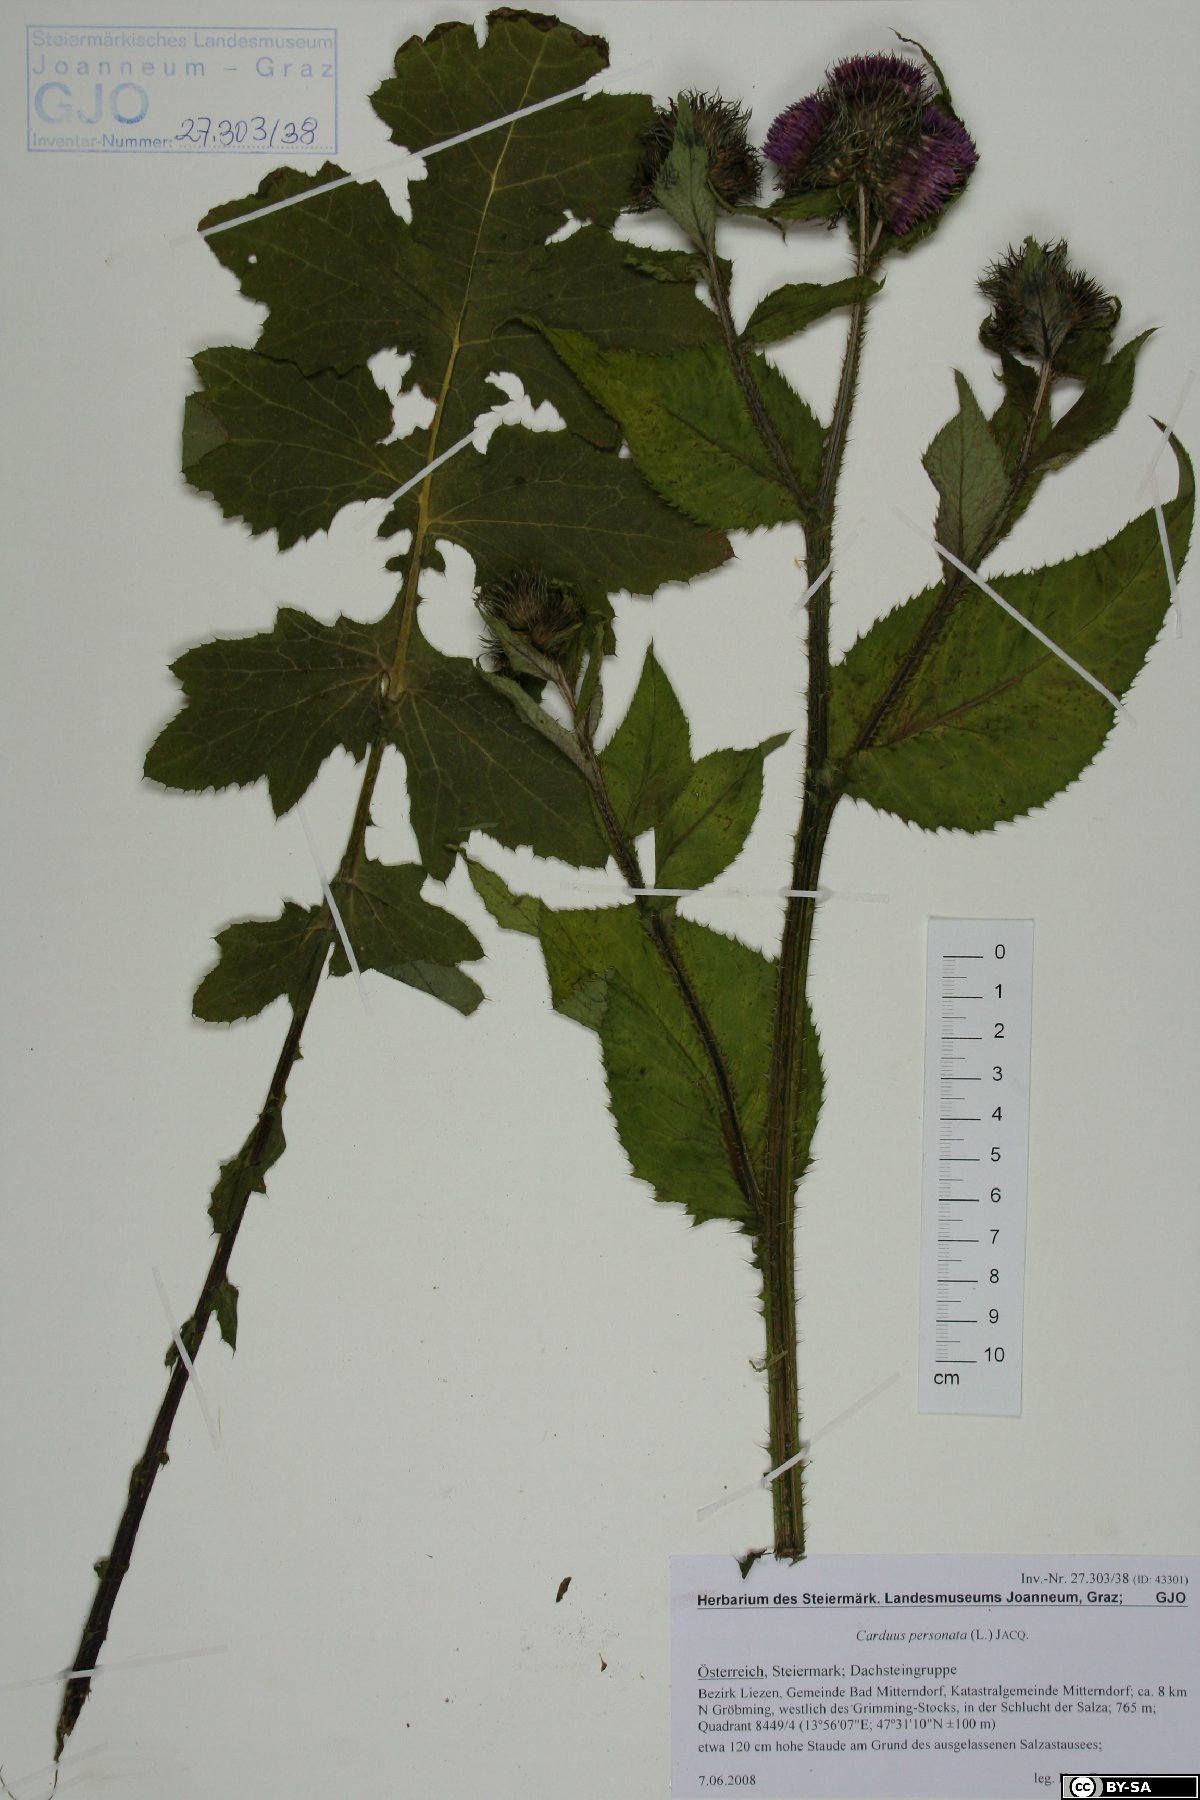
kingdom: Plantae
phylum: Tracheophyta
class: Magnoliopsida
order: Asterales
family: Asteraceae
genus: Carduus
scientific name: Carduus personata
